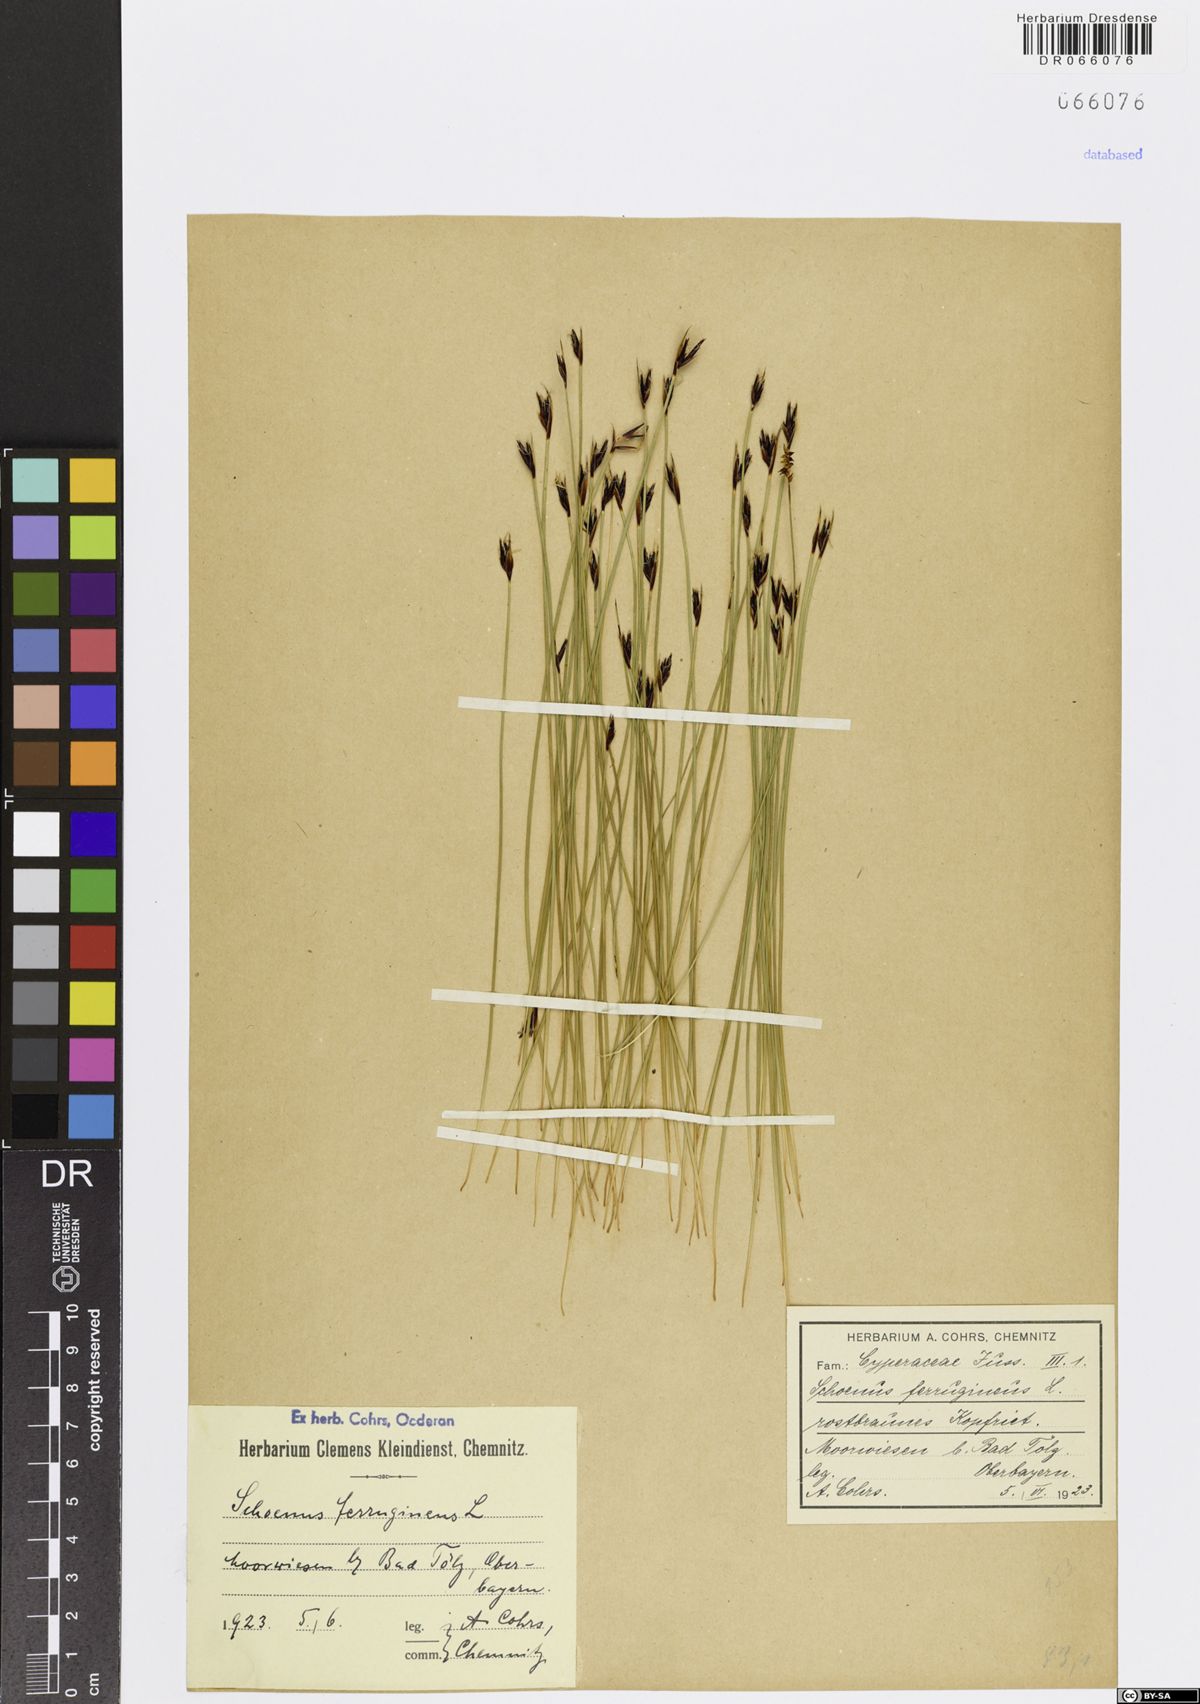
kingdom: Plantae
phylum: Tracheophyta
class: Liliopsida
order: Poales
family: Cyperaceae
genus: Schoenus
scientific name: Schoenus ferrugineus
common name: Brown bog-rush
